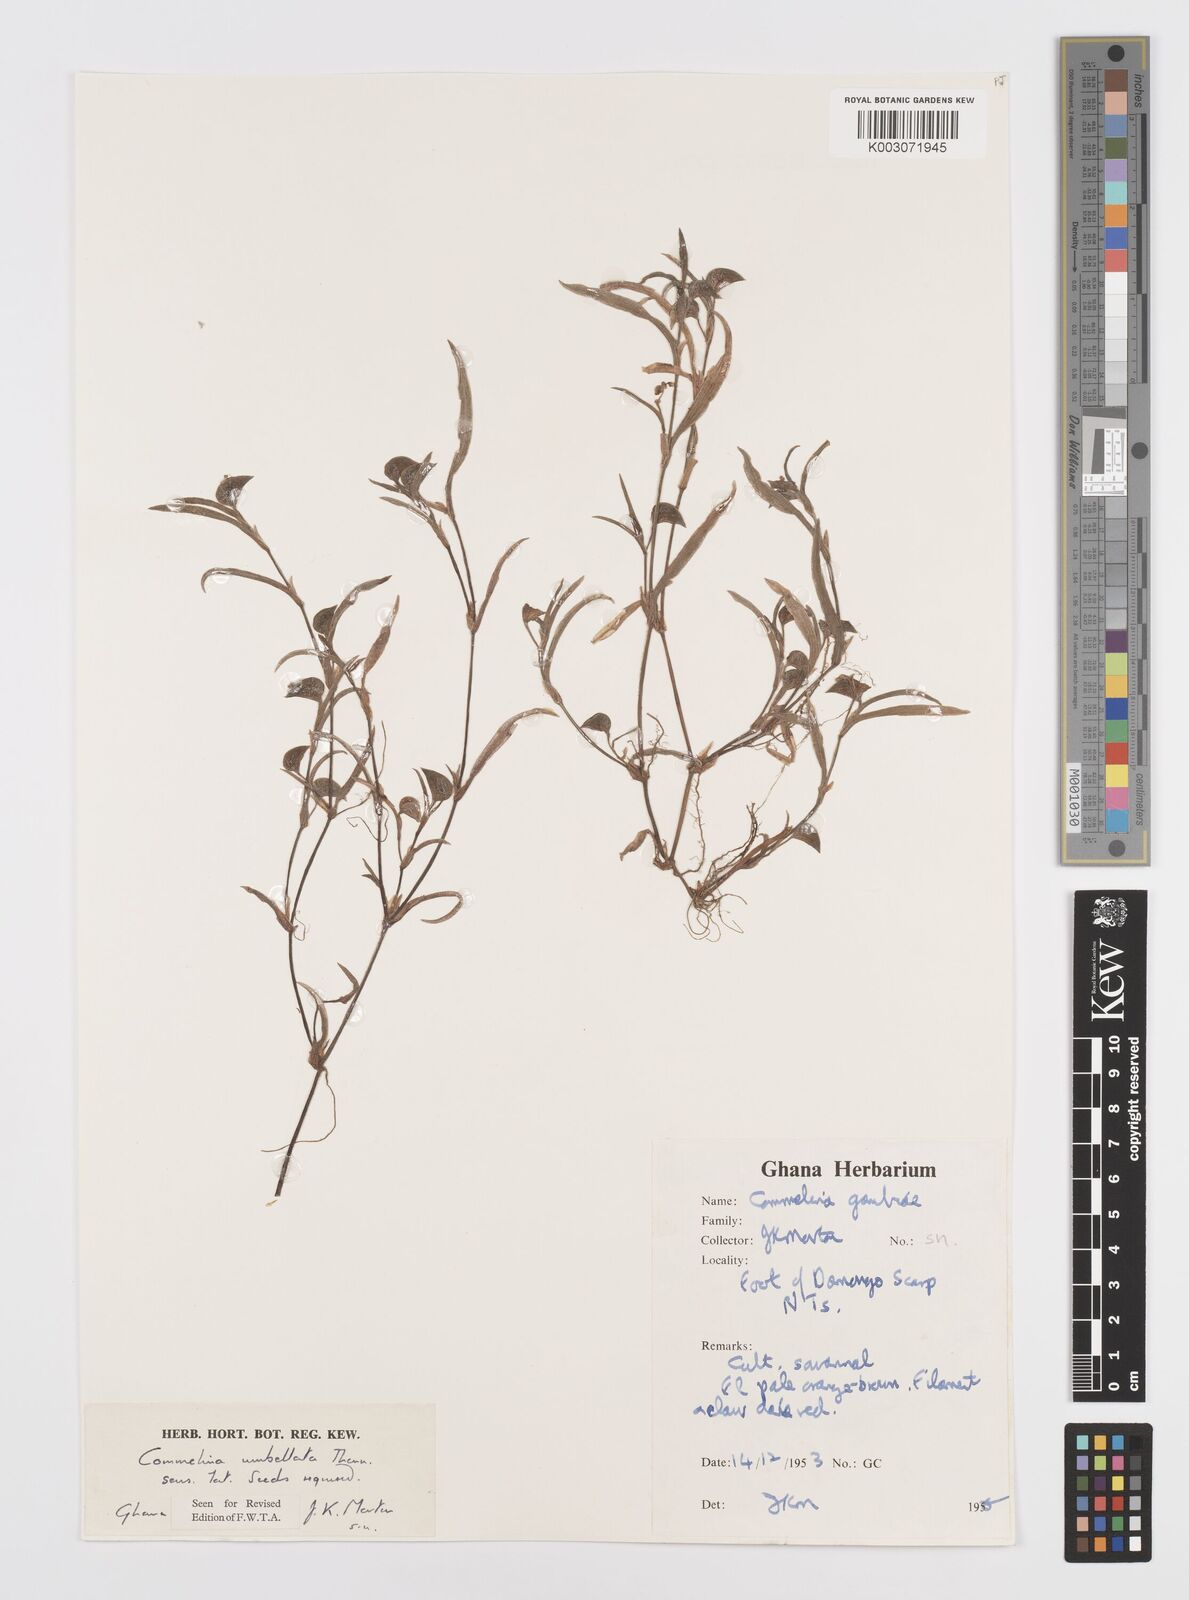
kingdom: Plantae
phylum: Tracheophyta
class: Liliopsida
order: Commelinales
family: Commelinaceae
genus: Commelina
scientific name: Commelina
